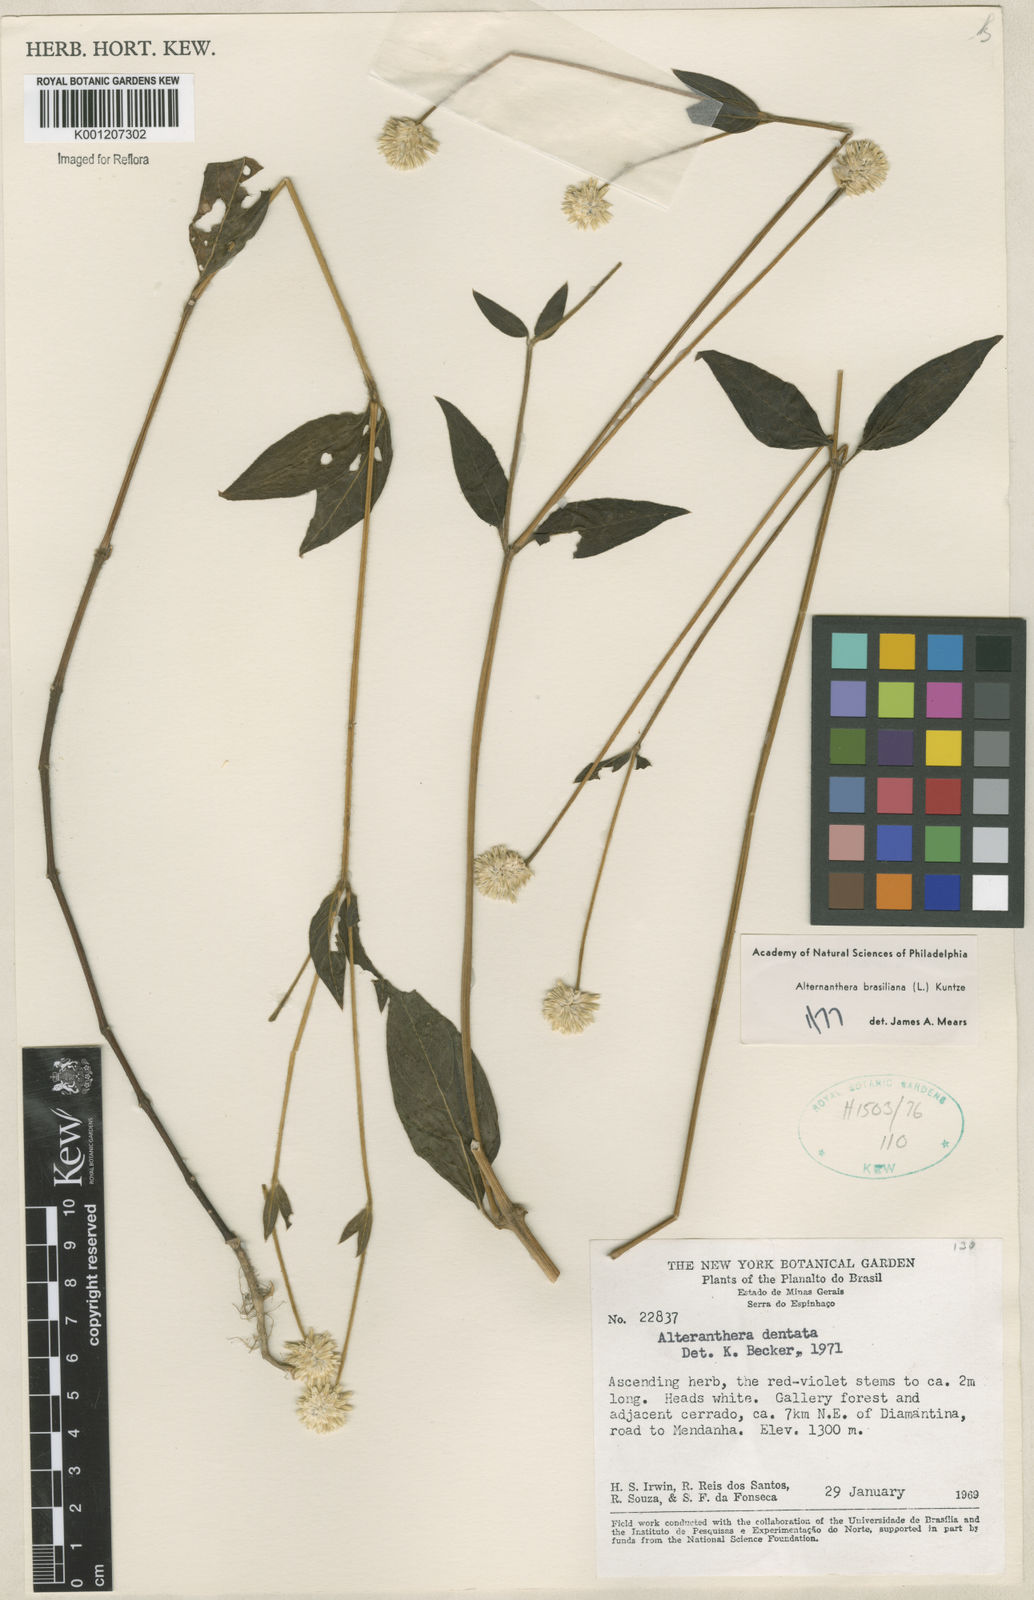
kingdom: Plantae
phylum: Tracheophyta
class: Magnoliopsida
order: Caryophyllales
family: Amaranthaceae
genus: Alternanthera
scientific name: Alternanthera brasiliana
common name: Brazilian joyweed
